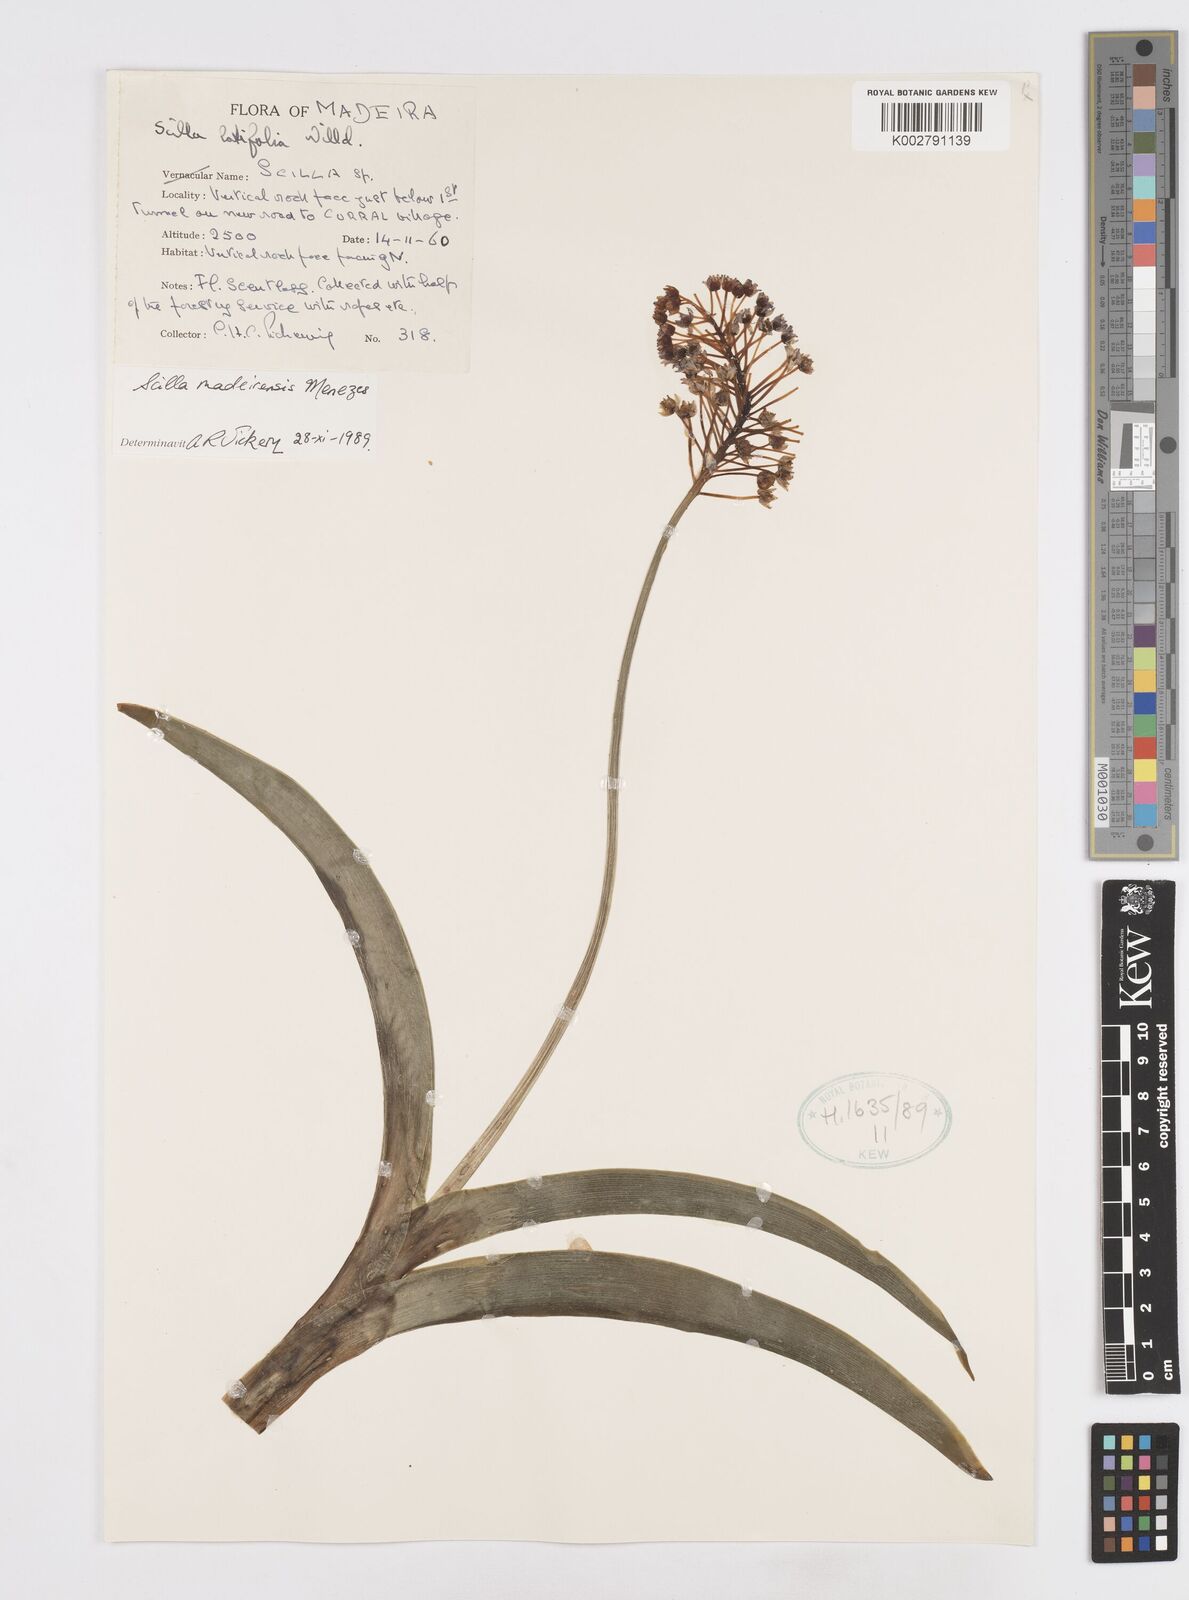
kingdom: Plantae
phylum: Tracheophyta
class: Liliopsida
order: Asparagales
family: Asparagaceae
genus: Scilla
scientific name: Scilla madeirensis
